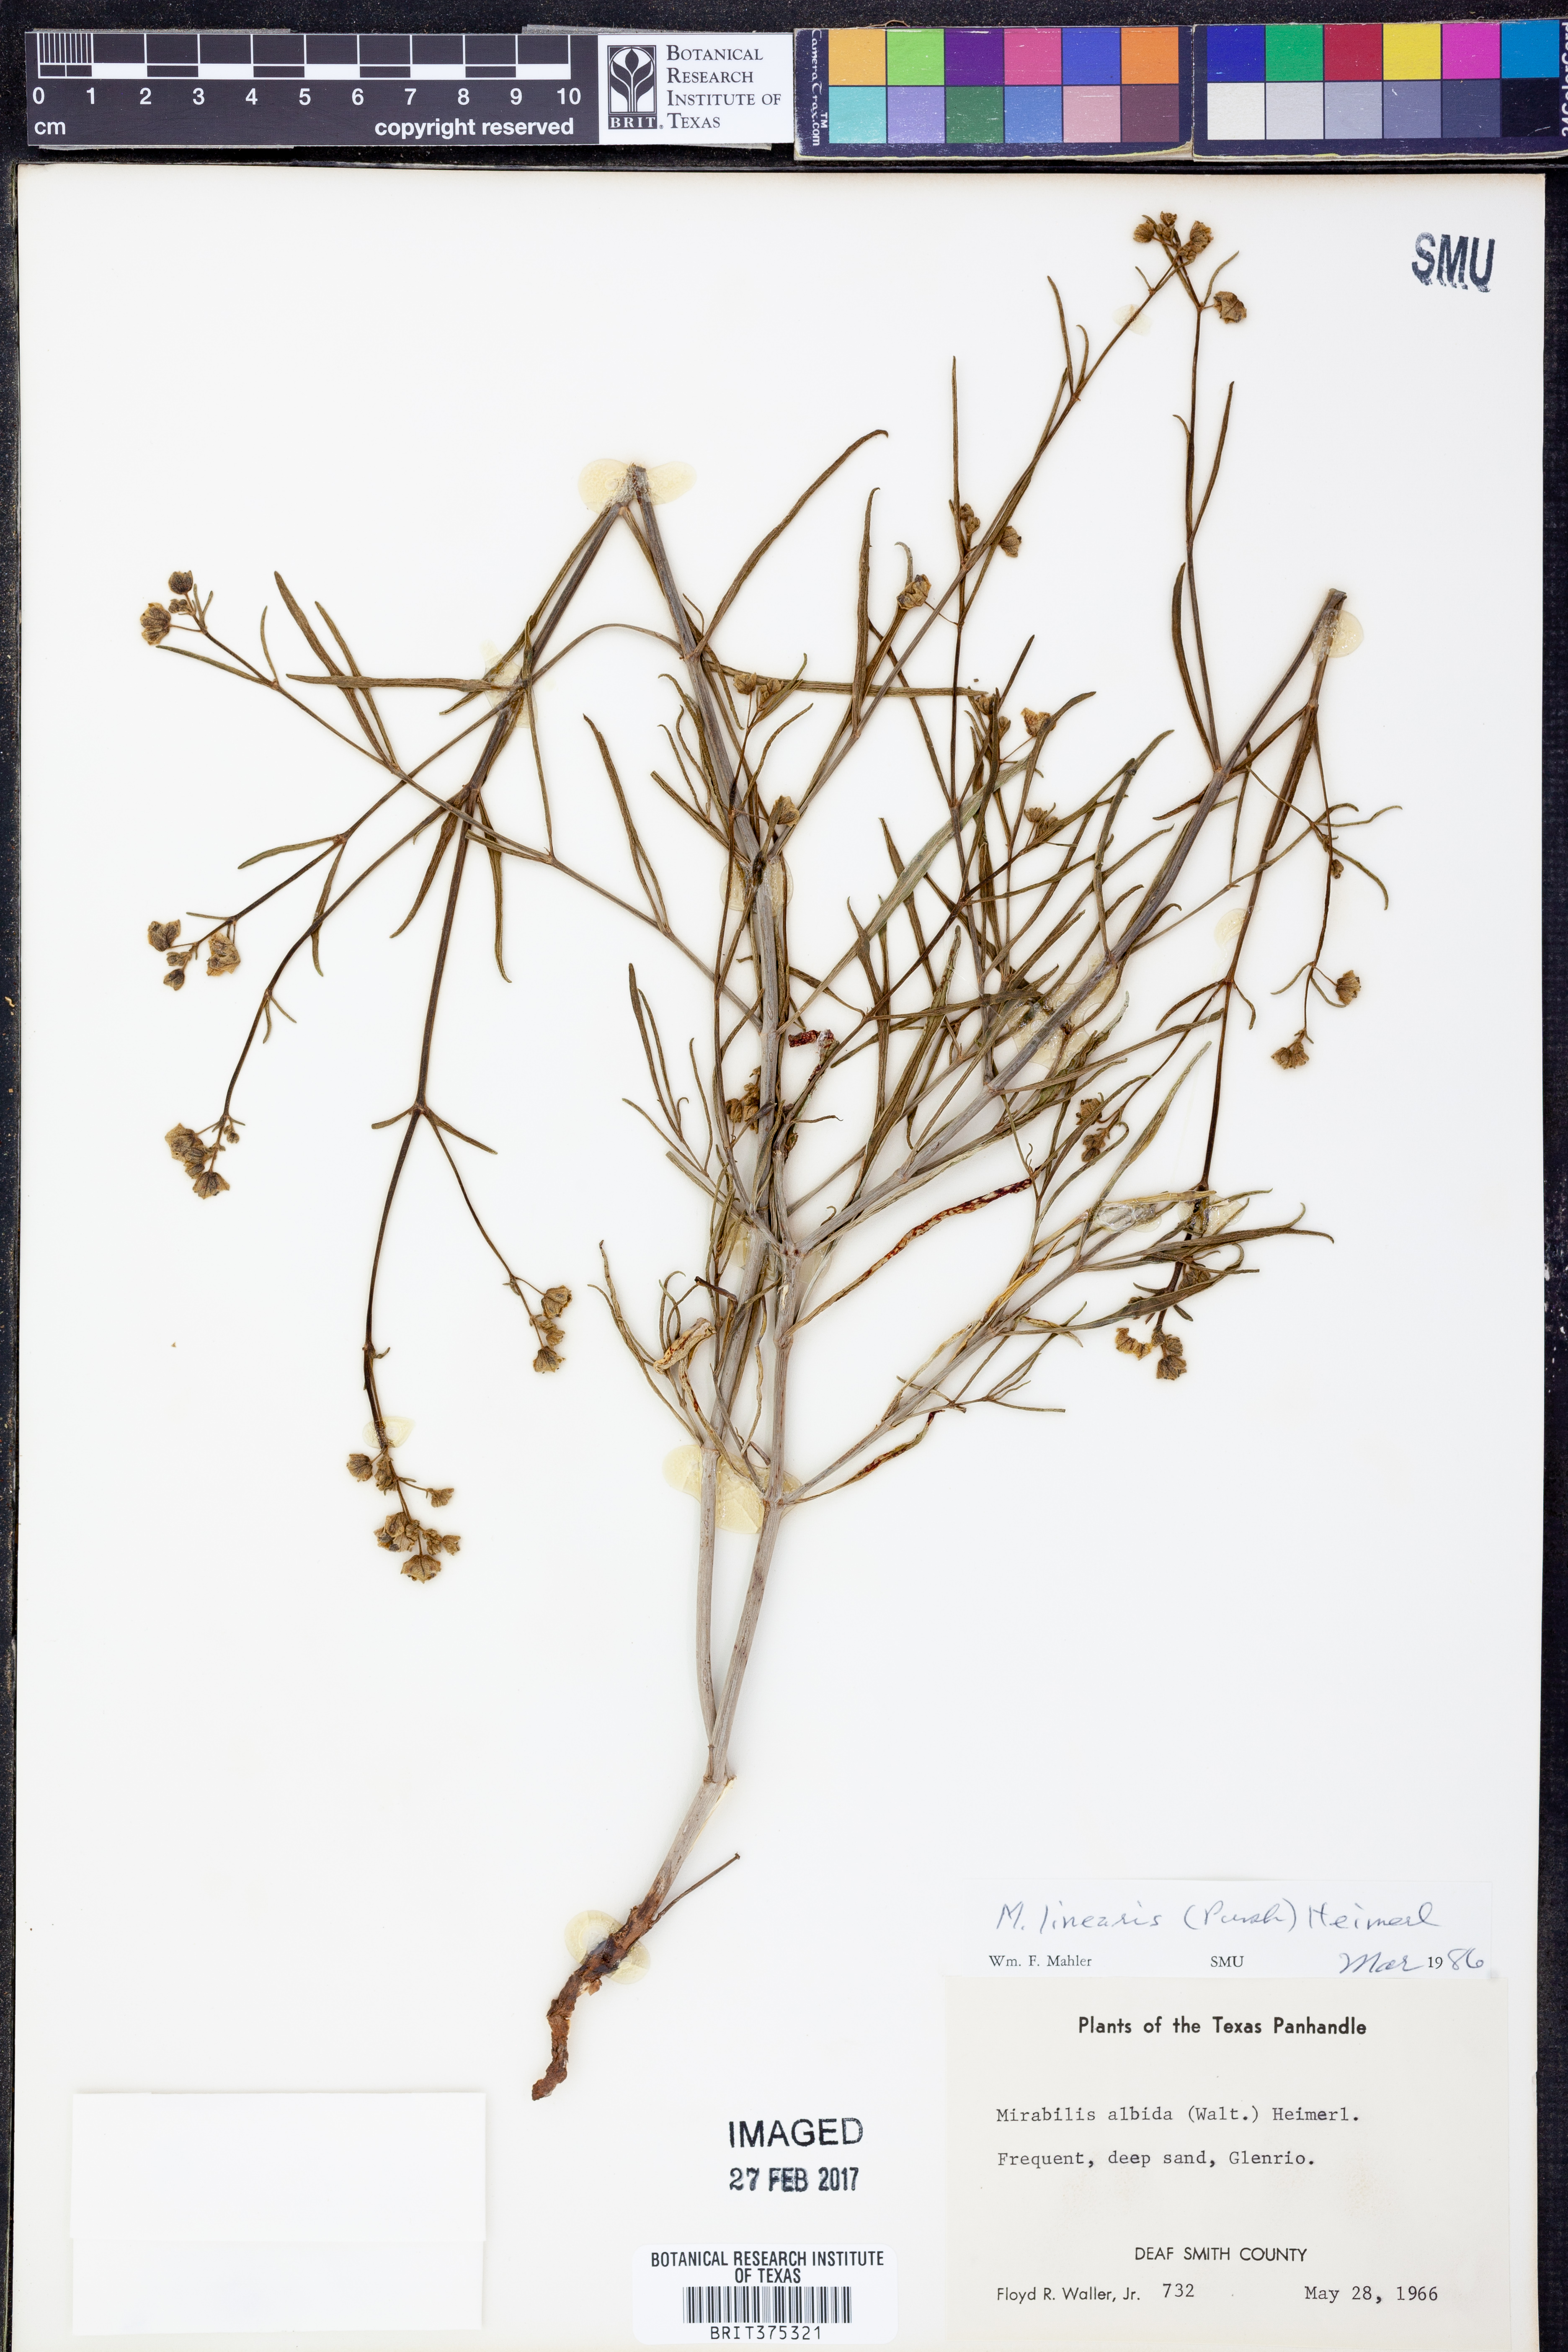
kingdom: Plantae
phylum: Tracheophyta
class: Magnoliopsida
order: Caryophyllales
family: Nyctaginaceae
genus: Mirabilis
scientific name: Mirabilis linearis
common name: Linear-leaved four-o'clock
